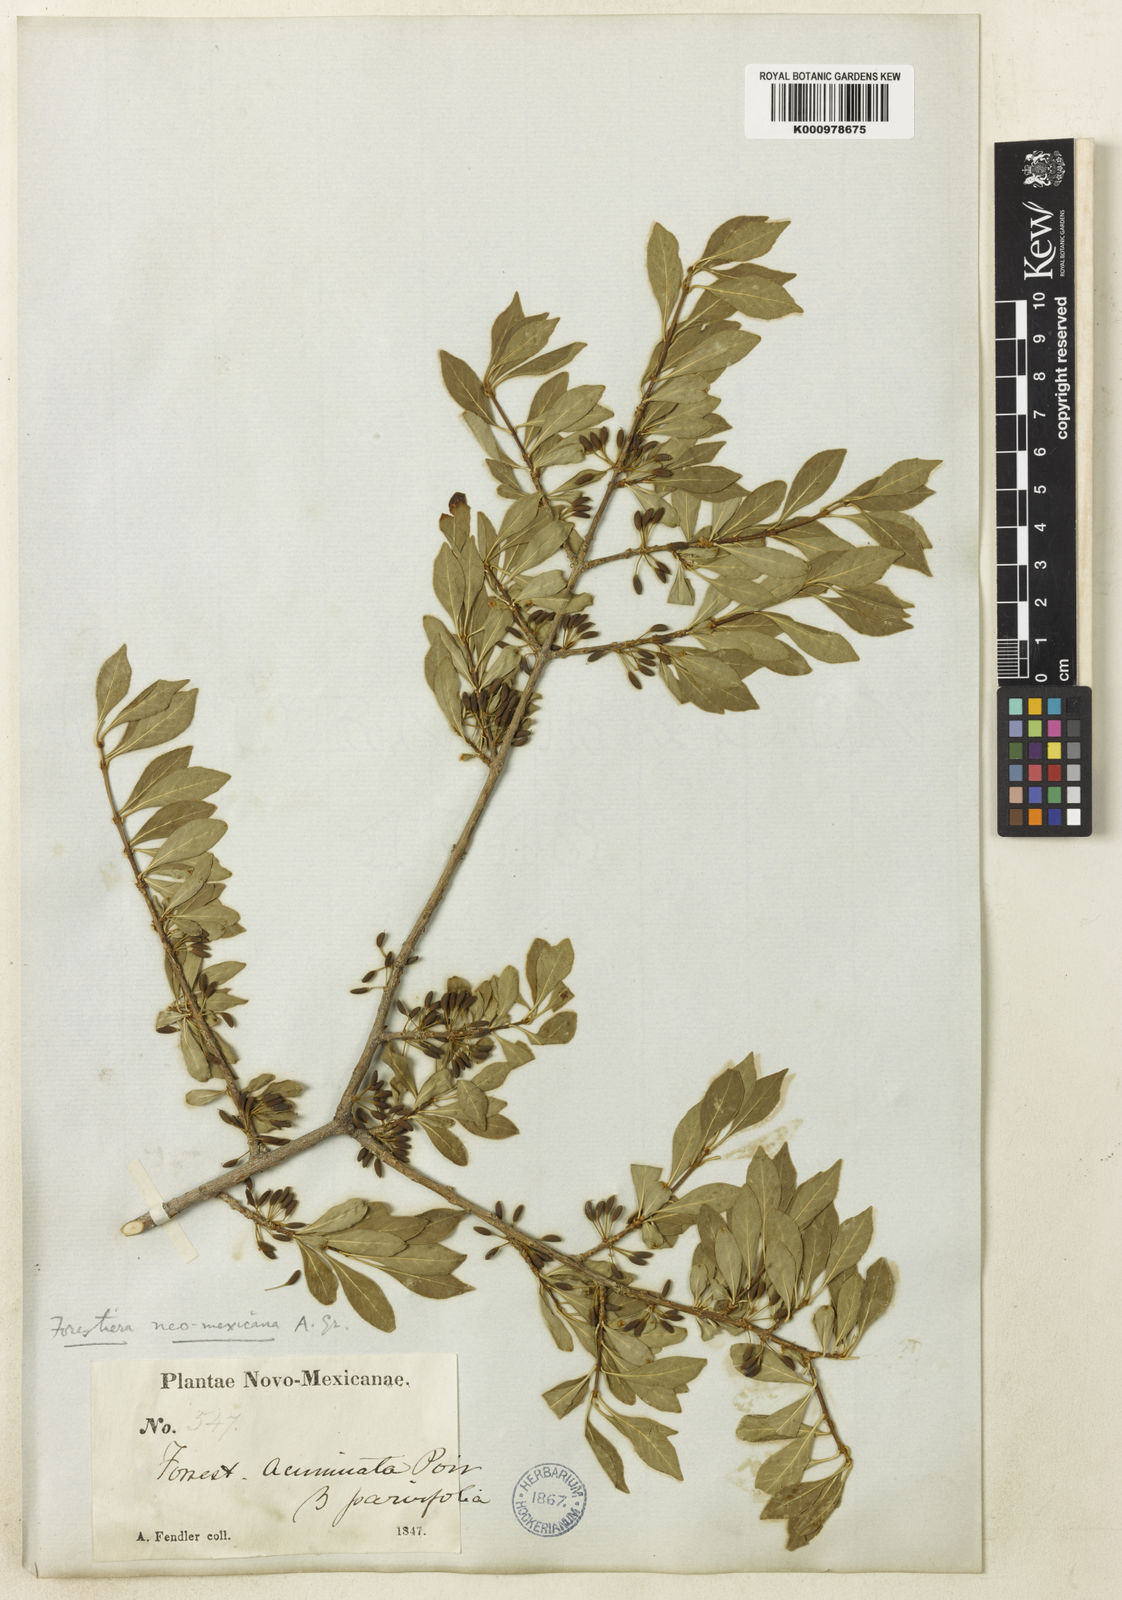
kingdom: Plantae
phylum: Tracheophyta
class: Magnoliopsida
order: Lamiales
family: Oleaceae
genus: Forestiera
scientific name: Forestiera pubescens
